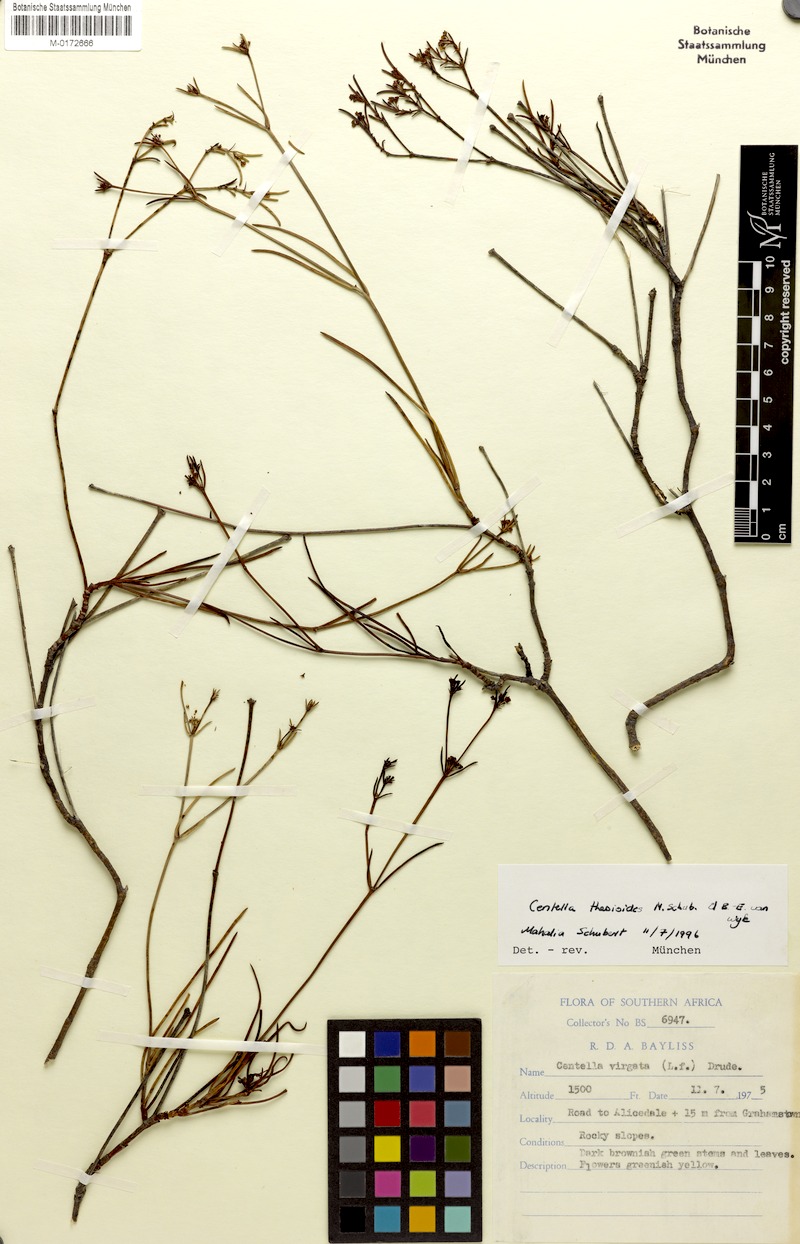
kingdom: Plantae
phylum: Tracheophyta
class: Magnoliopsida
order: Apiales
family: Apiaceae
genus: Centella
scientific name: Centella thesioides
